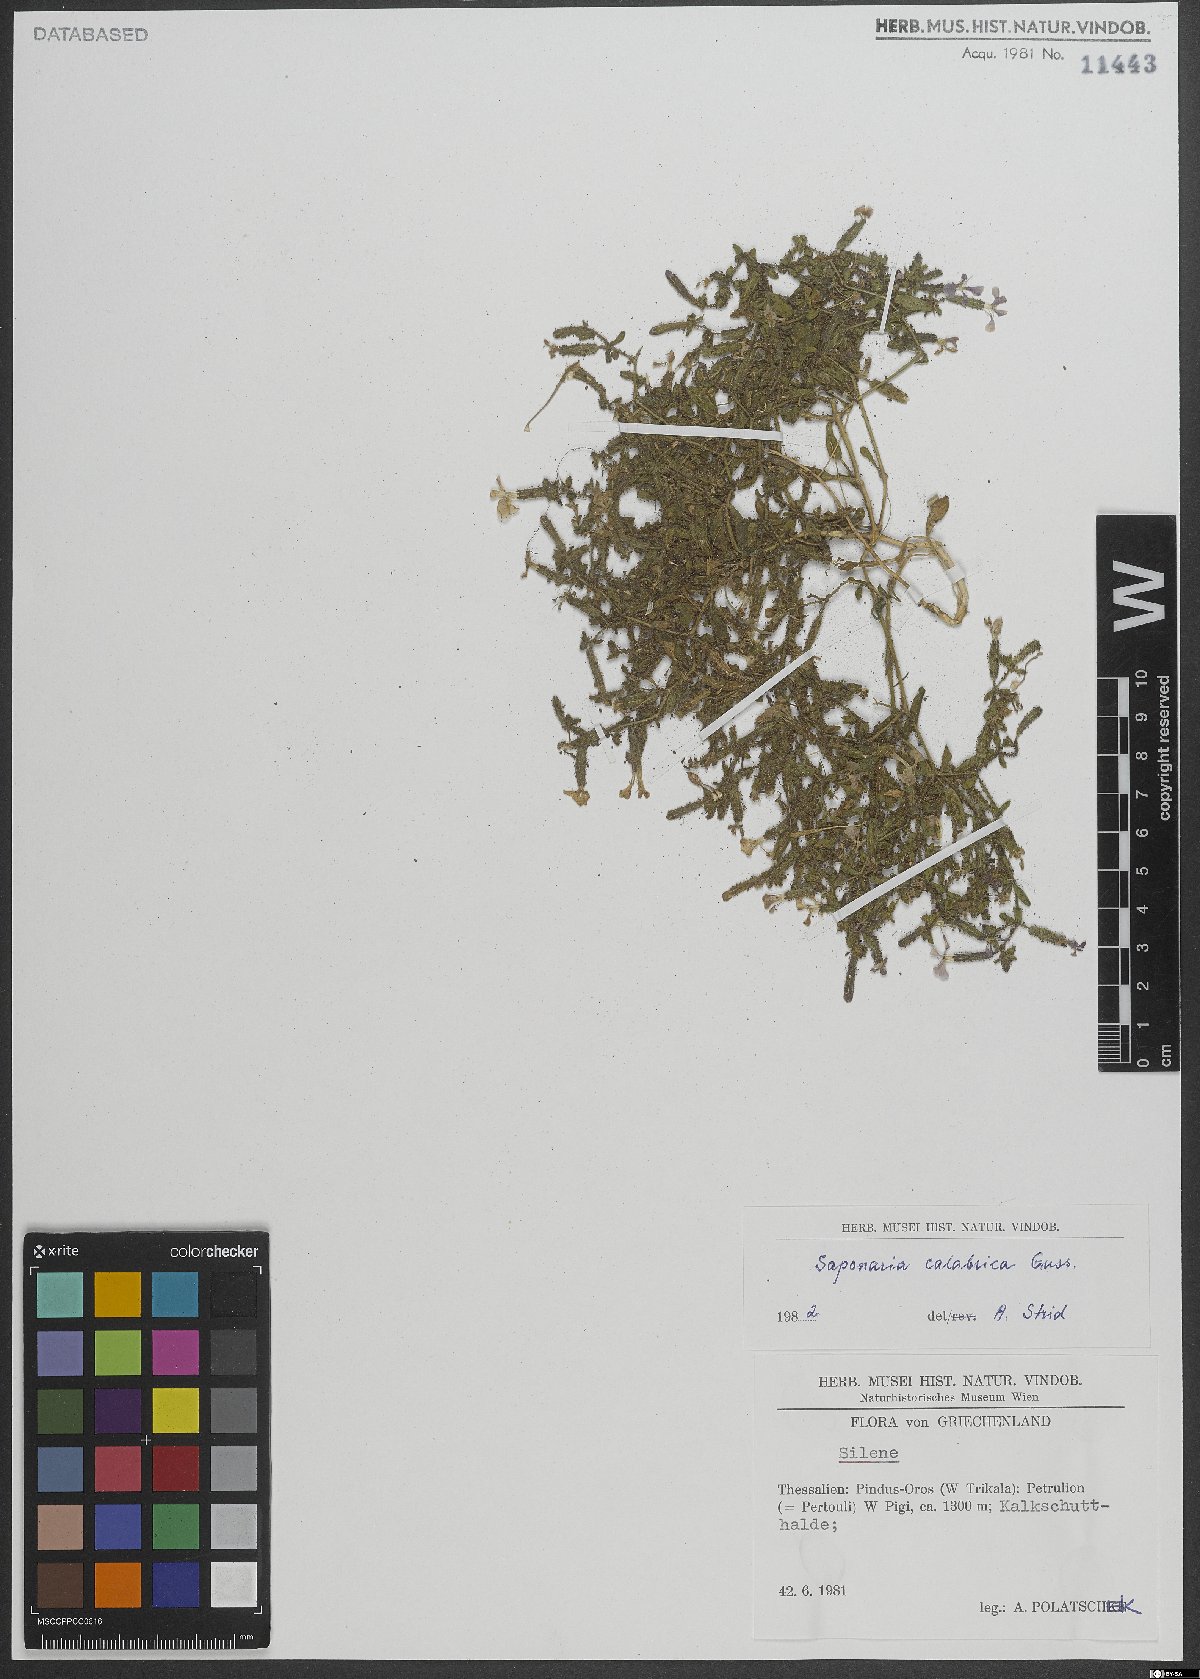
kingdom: Plantae
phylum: Tracheophyta
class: Magnoliopsida
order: Caryophyllales
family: Caryophyllaceae
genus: Saponaria
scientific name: Saponaria calabrica
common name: Adriatic soapwort
